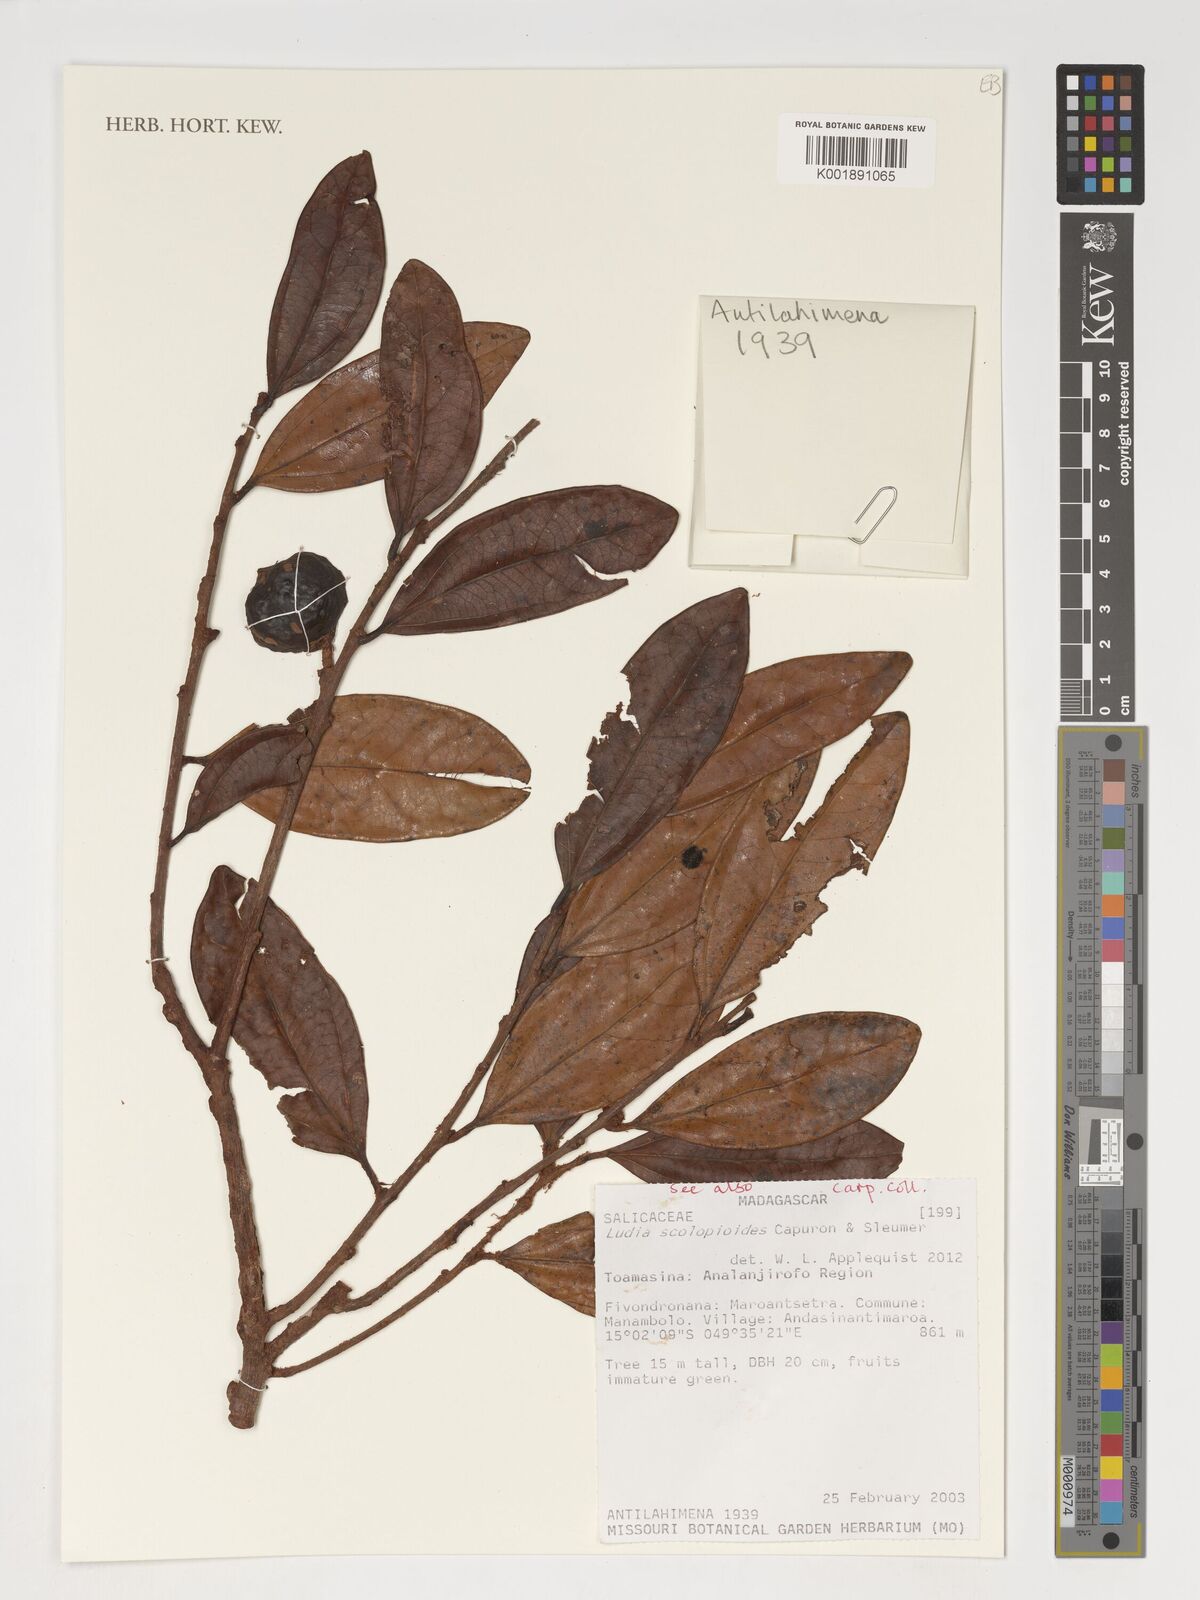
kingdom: Plantae
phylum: Tracheophyta
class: Magnoliopsida
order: Malpighiales
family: Salicaceae
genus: Ludia
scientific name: Ludia scolopioides
